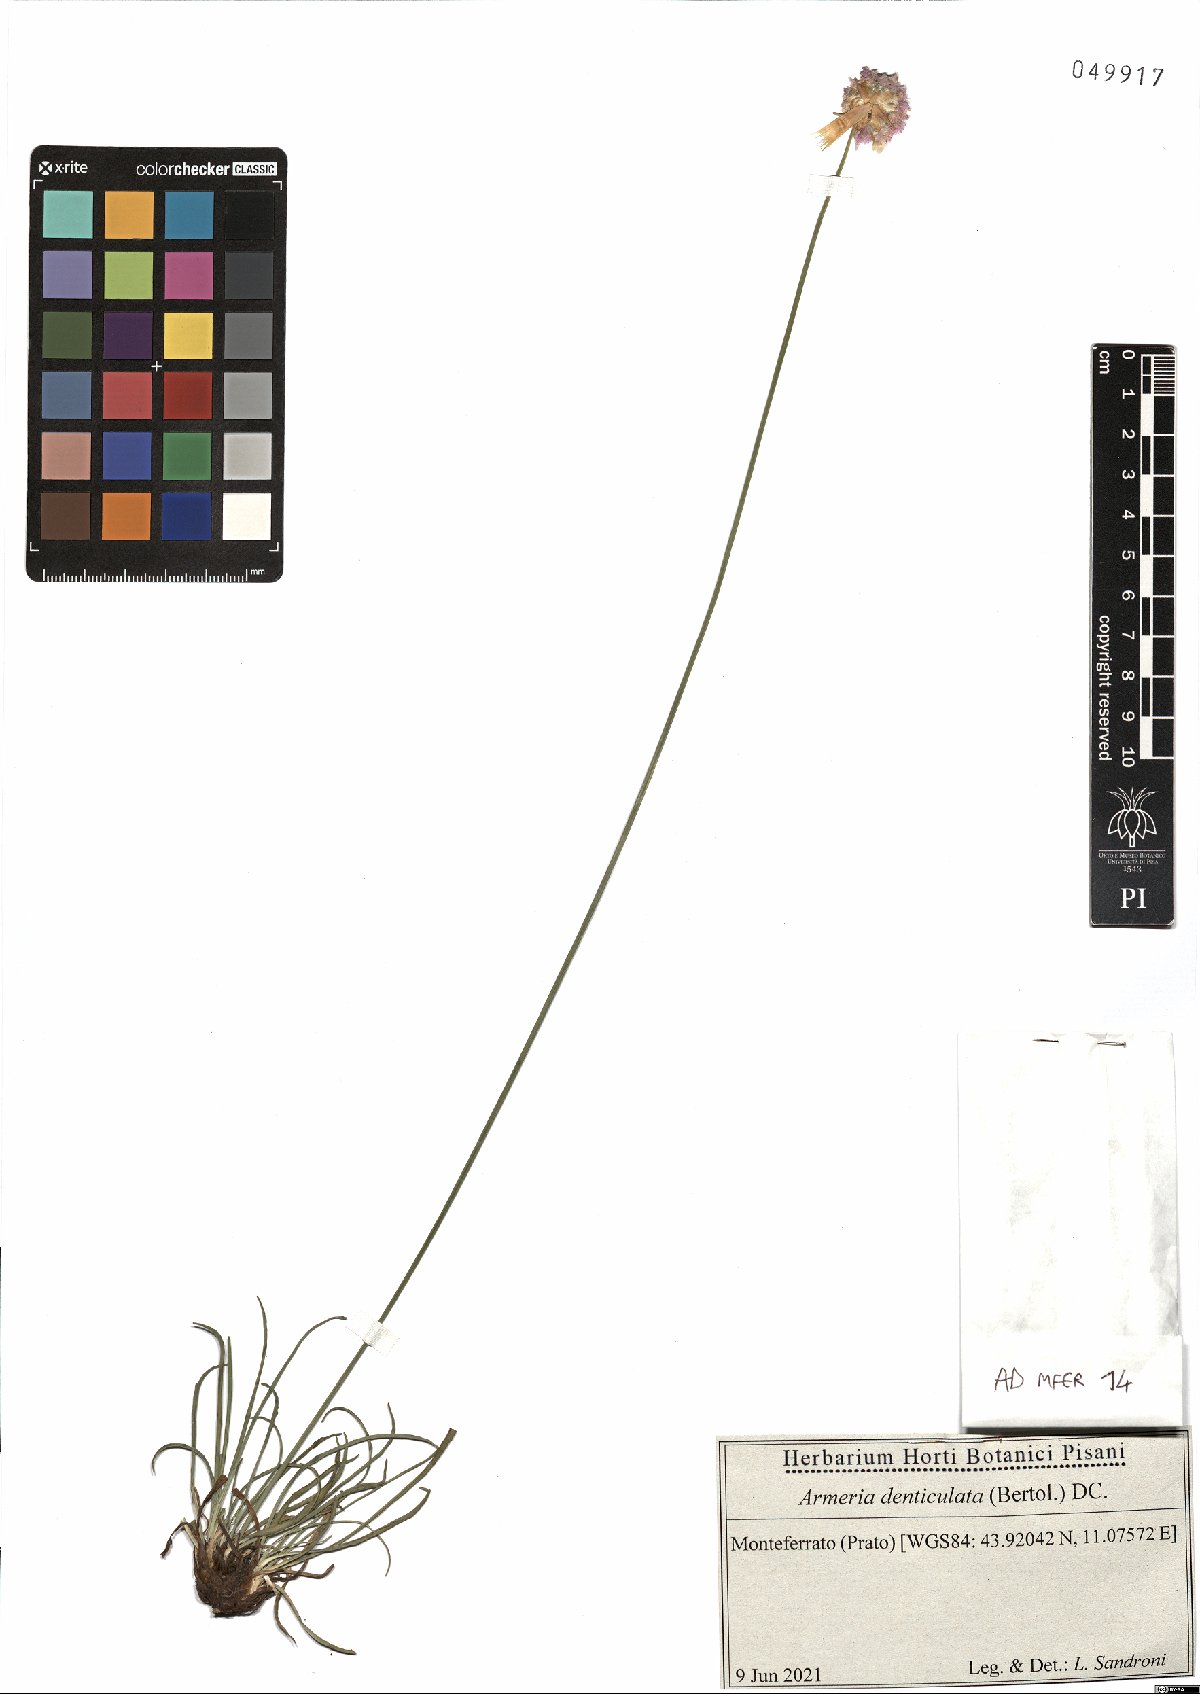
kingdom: Plantae
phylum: Tracheophyta
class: Magnoliopsida
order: Caryophyllales
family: Plumbaginaceae
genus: Armeria
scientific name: Armeria denticulata
